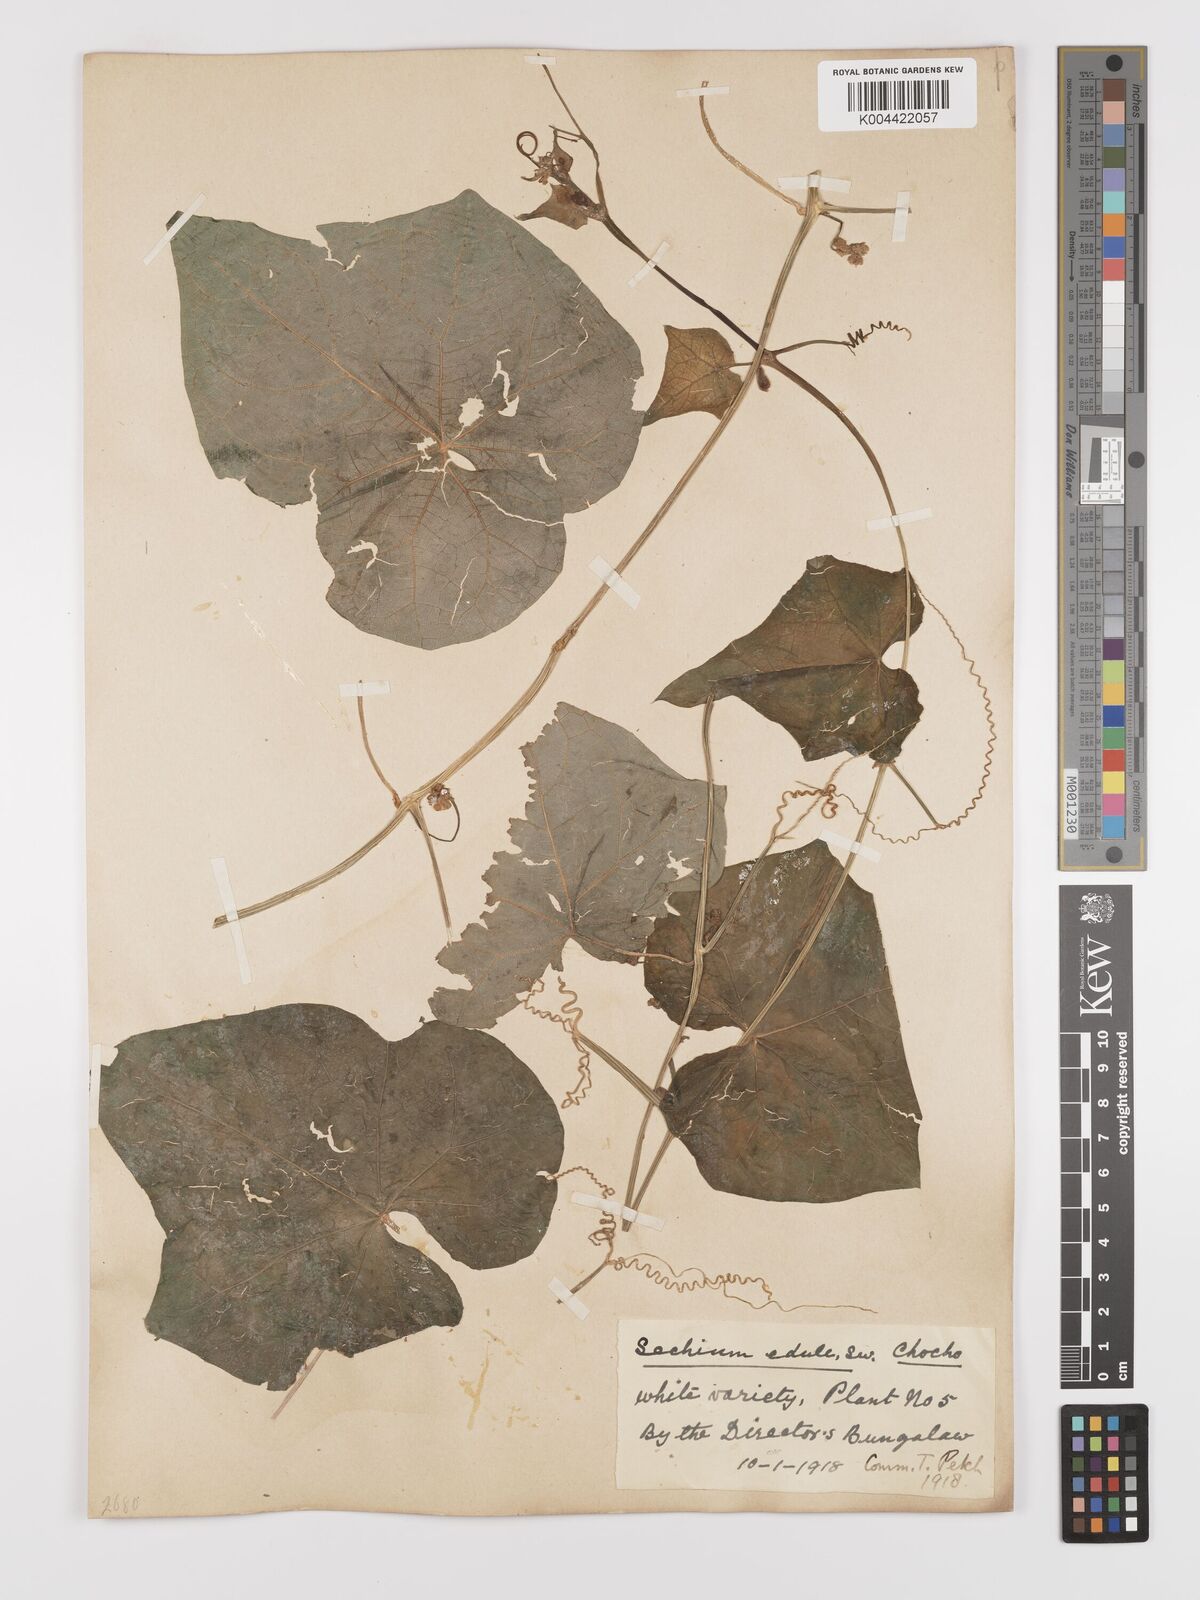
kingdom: Plantae
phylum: Tracheophyta
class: Magnoliopsida
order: Cucurbitales
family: Cucurbitaceae
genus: Sechium
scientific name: Sechium edule
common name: Chayote
